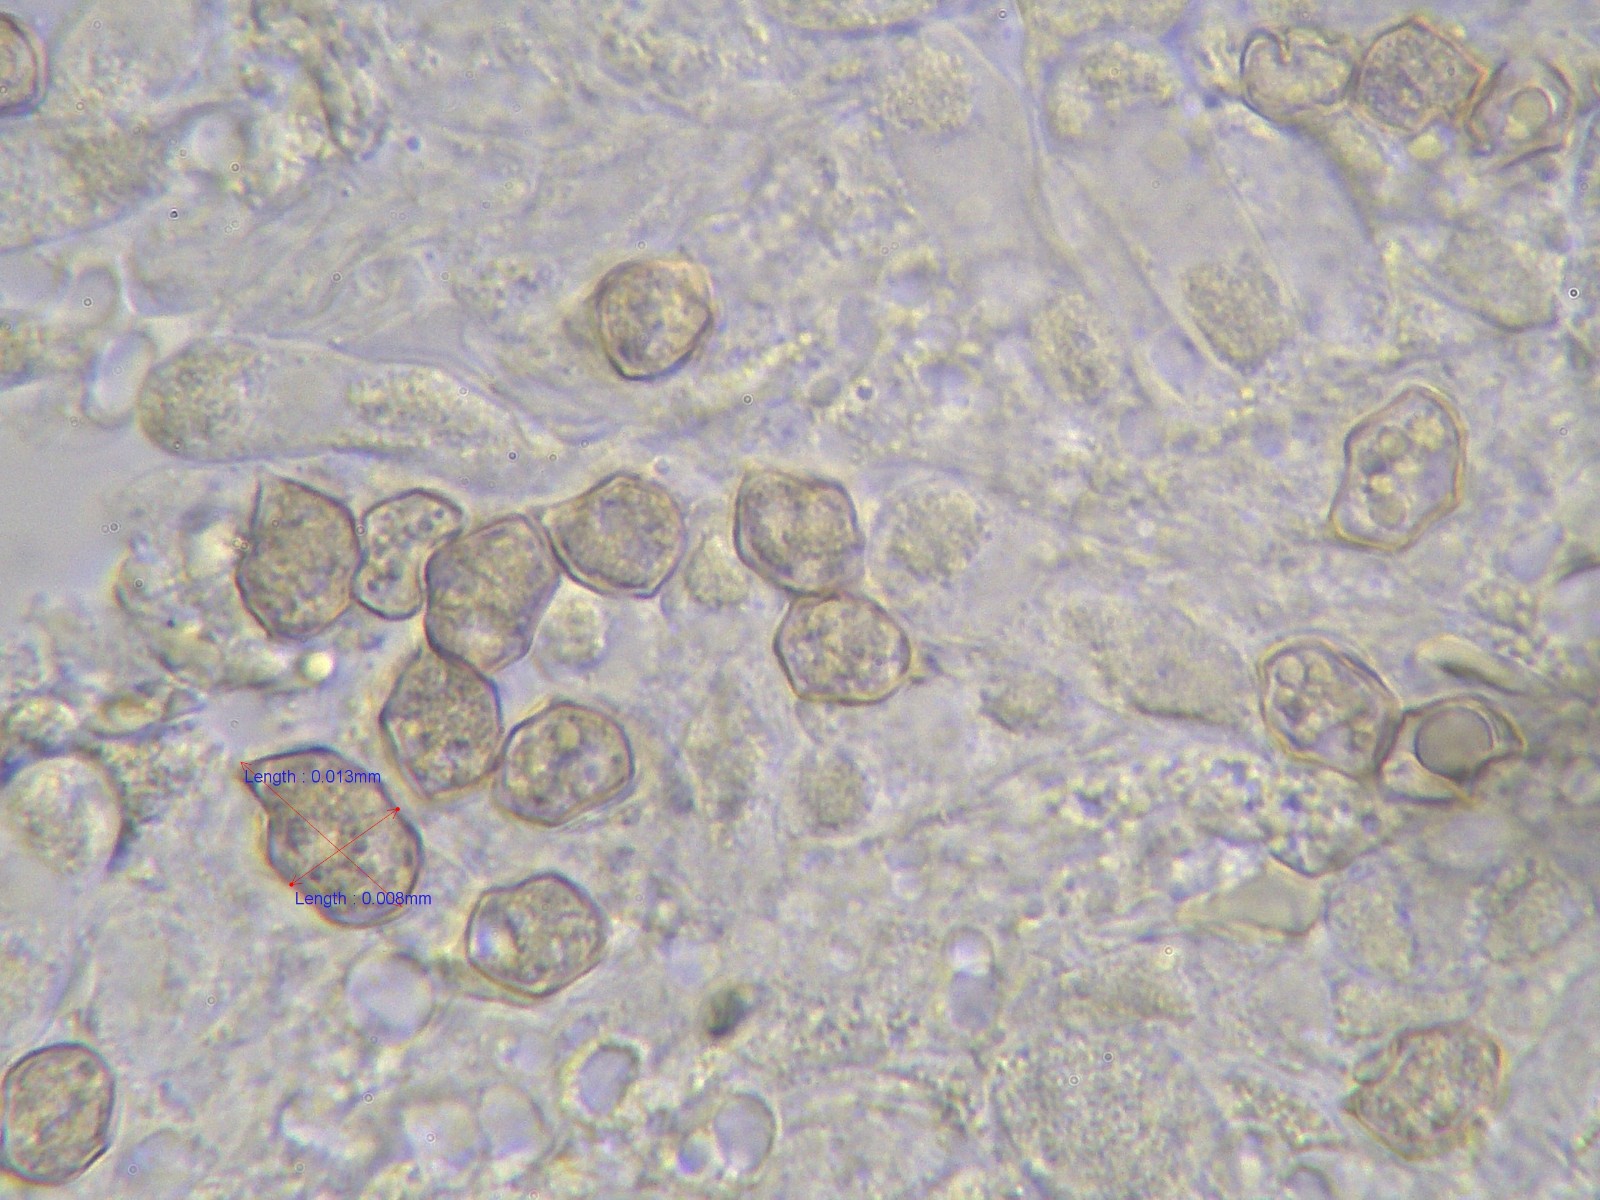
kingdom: Fungi
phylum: Basidiomycota
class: Agaricomycetes
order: Agaricales
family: Entolomataceae
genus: Entoloma
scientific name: Entoloma atrocoeruleum
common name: sortblå rødblad
